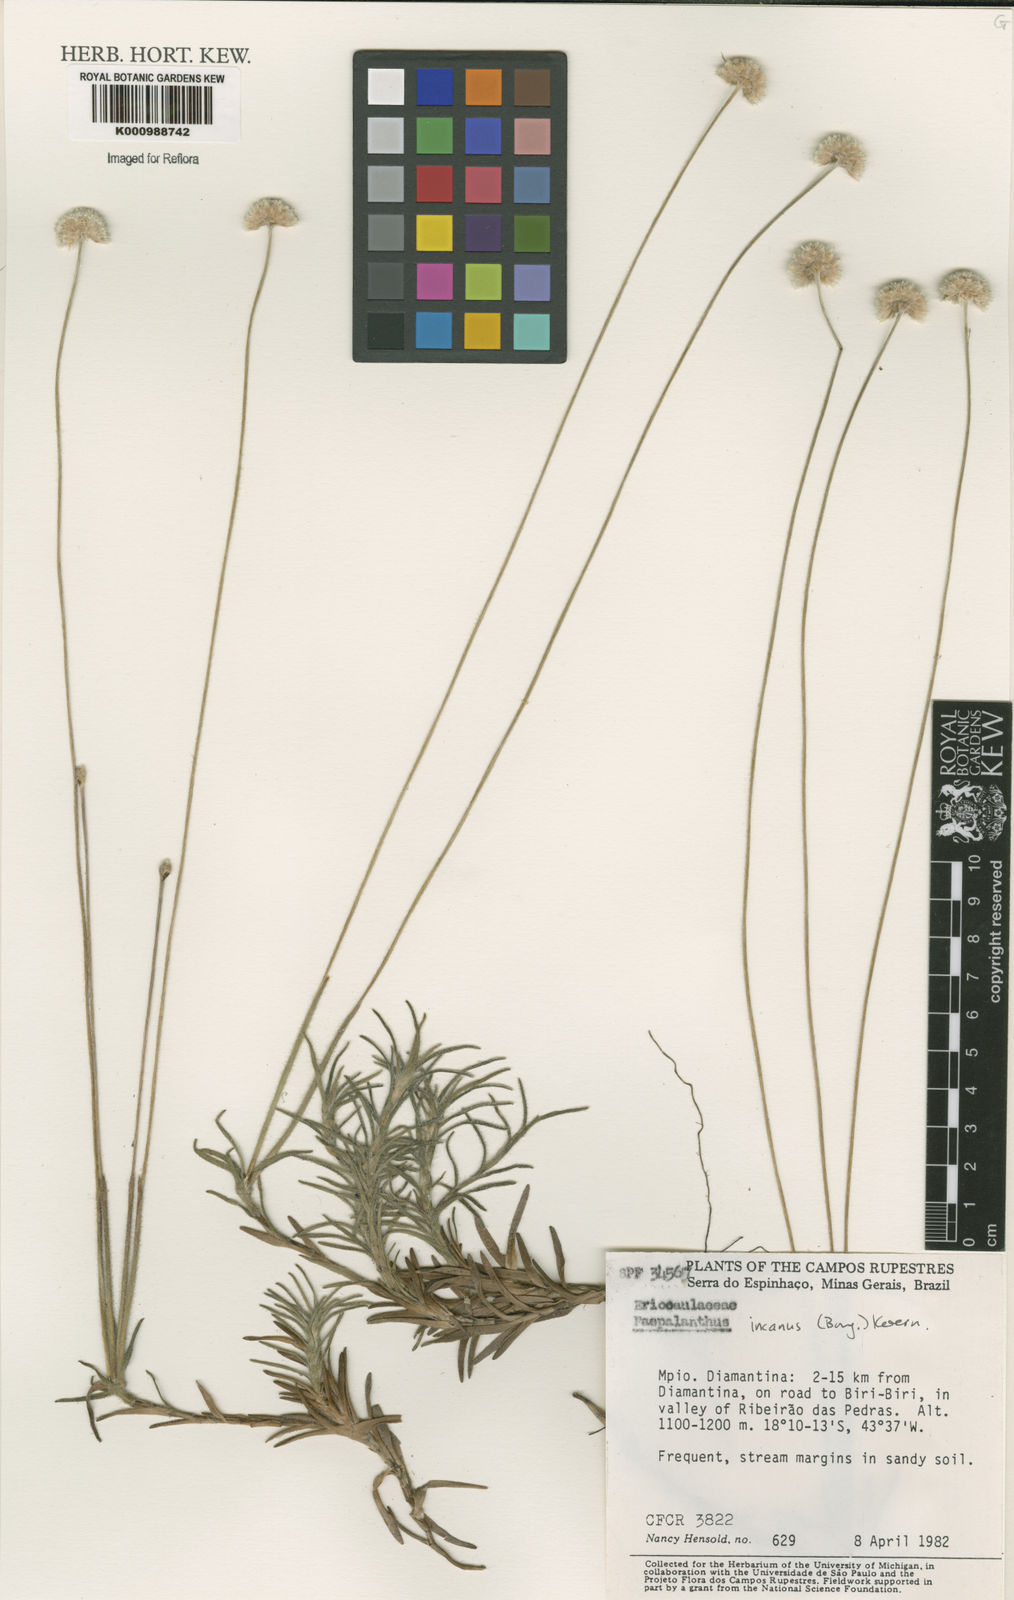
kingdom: Plantae
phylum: Tracheophyta
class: Liliopsida
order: Poales
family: Eriocaulaceae
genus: Paepalanthus
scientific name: Paepalanthus
